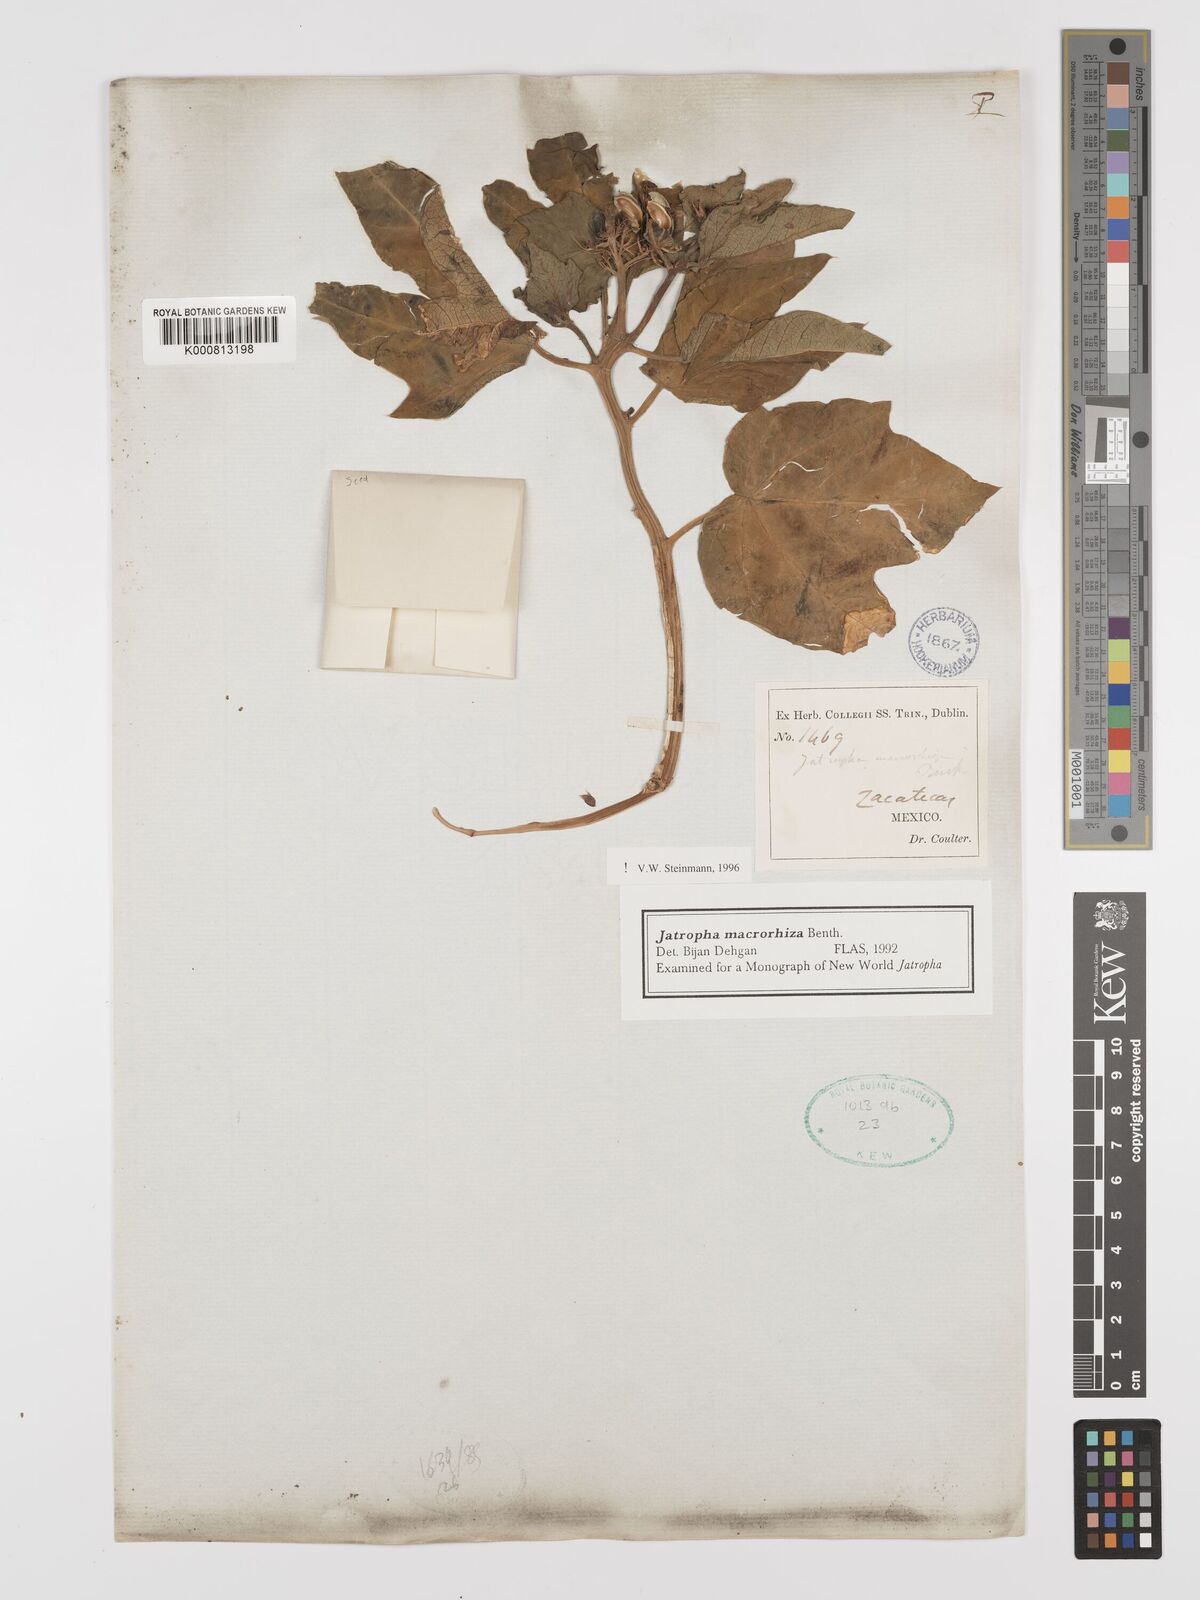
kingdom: Plantae
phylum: Tracheophyta
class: Magnoliopsida
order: Malpighiales
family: Euphorbiaceae
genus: Jatropha
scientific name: Jatropha macrorhiza
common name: Ragged nettlespurge
